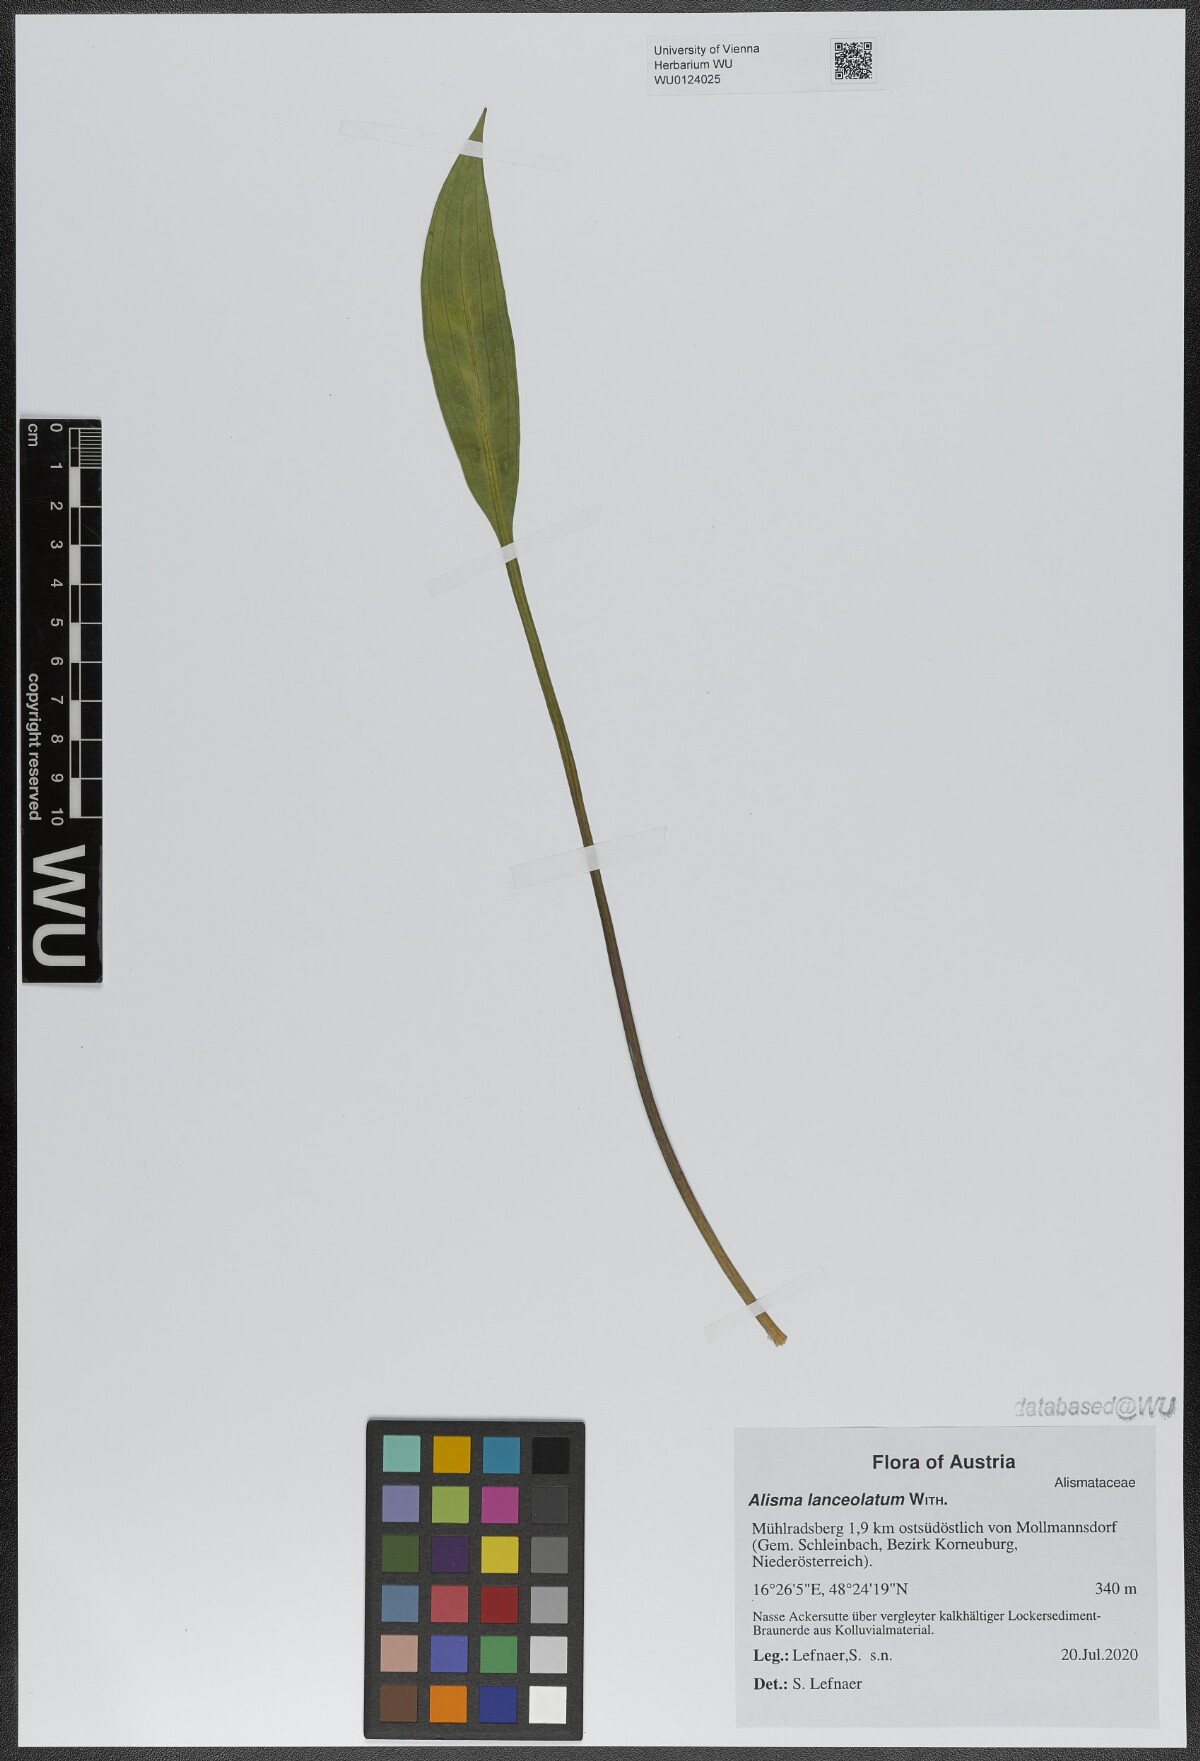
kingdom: Plantae
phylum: Tracheophyta
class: Liliopsida
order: Alismatales
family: Alismataceae
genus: Alisma
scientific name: Alisma lanceolatum
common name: Narrow-leaved water-plantain
